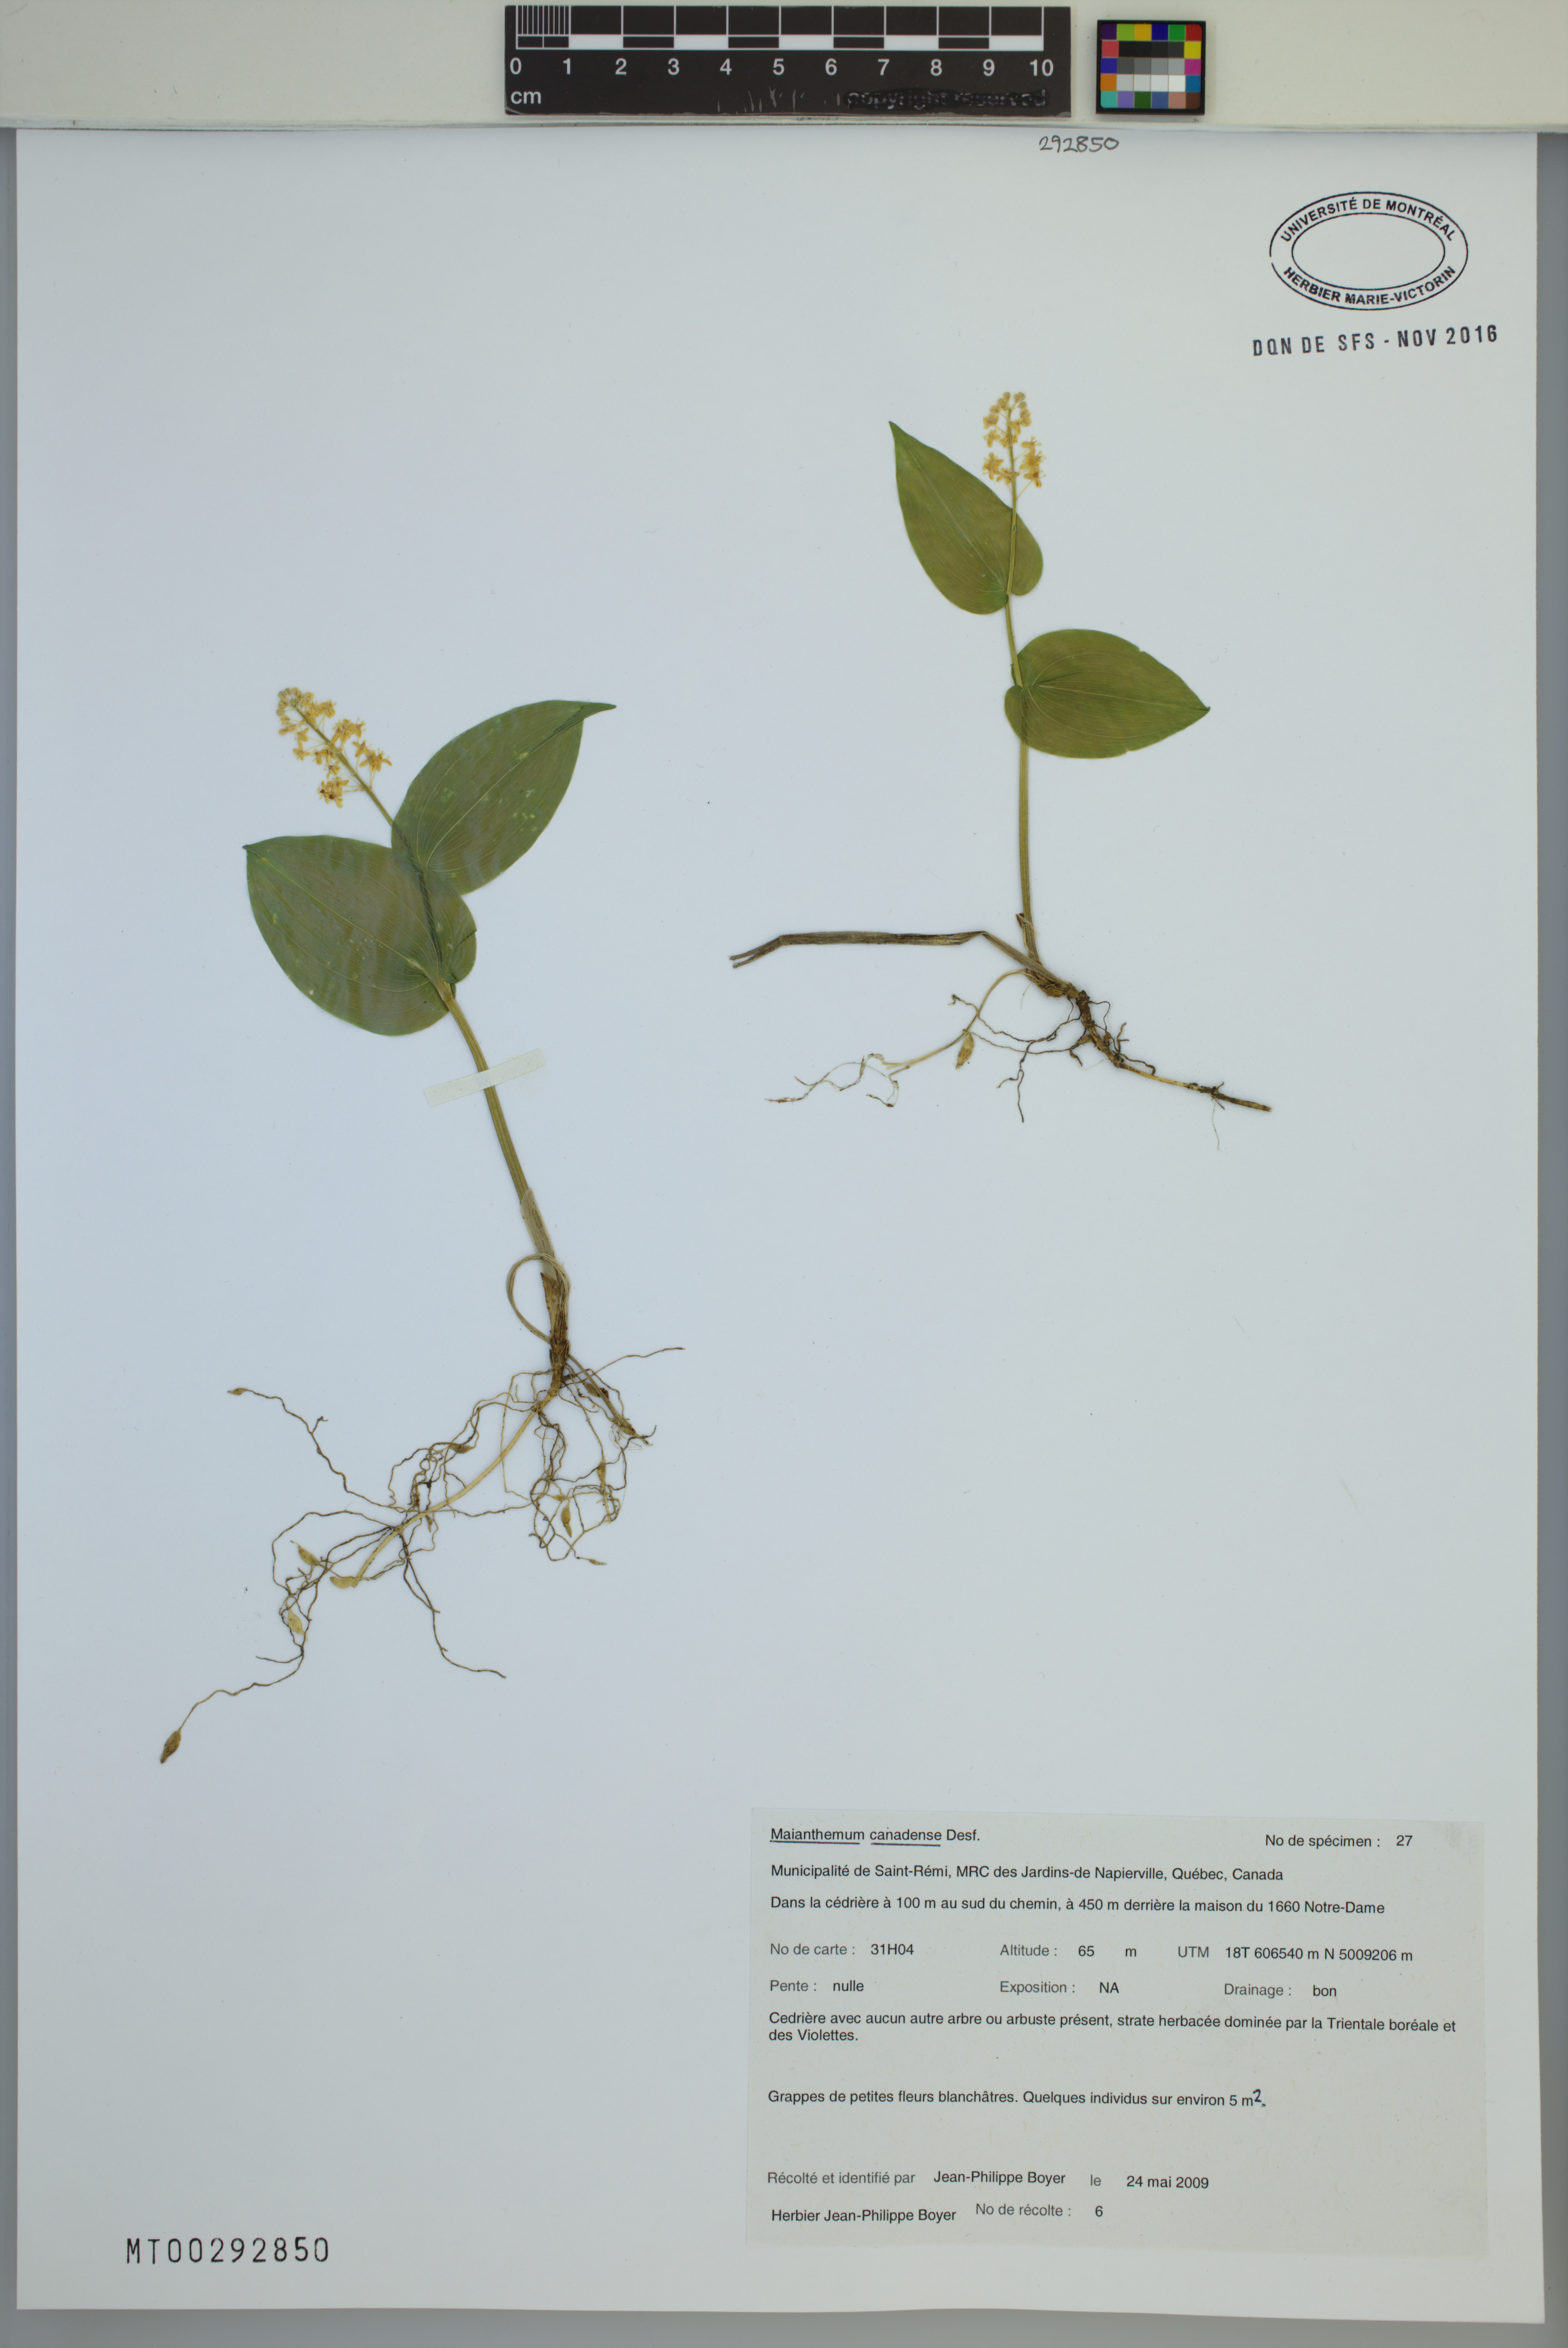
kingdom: Plantae
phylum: Tracheophyta
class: Liliopsida
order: Asparagales
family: Asparagaceae
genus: Maianthemum
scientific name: Maianthemum canadense
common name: False lily-of-the-valley
